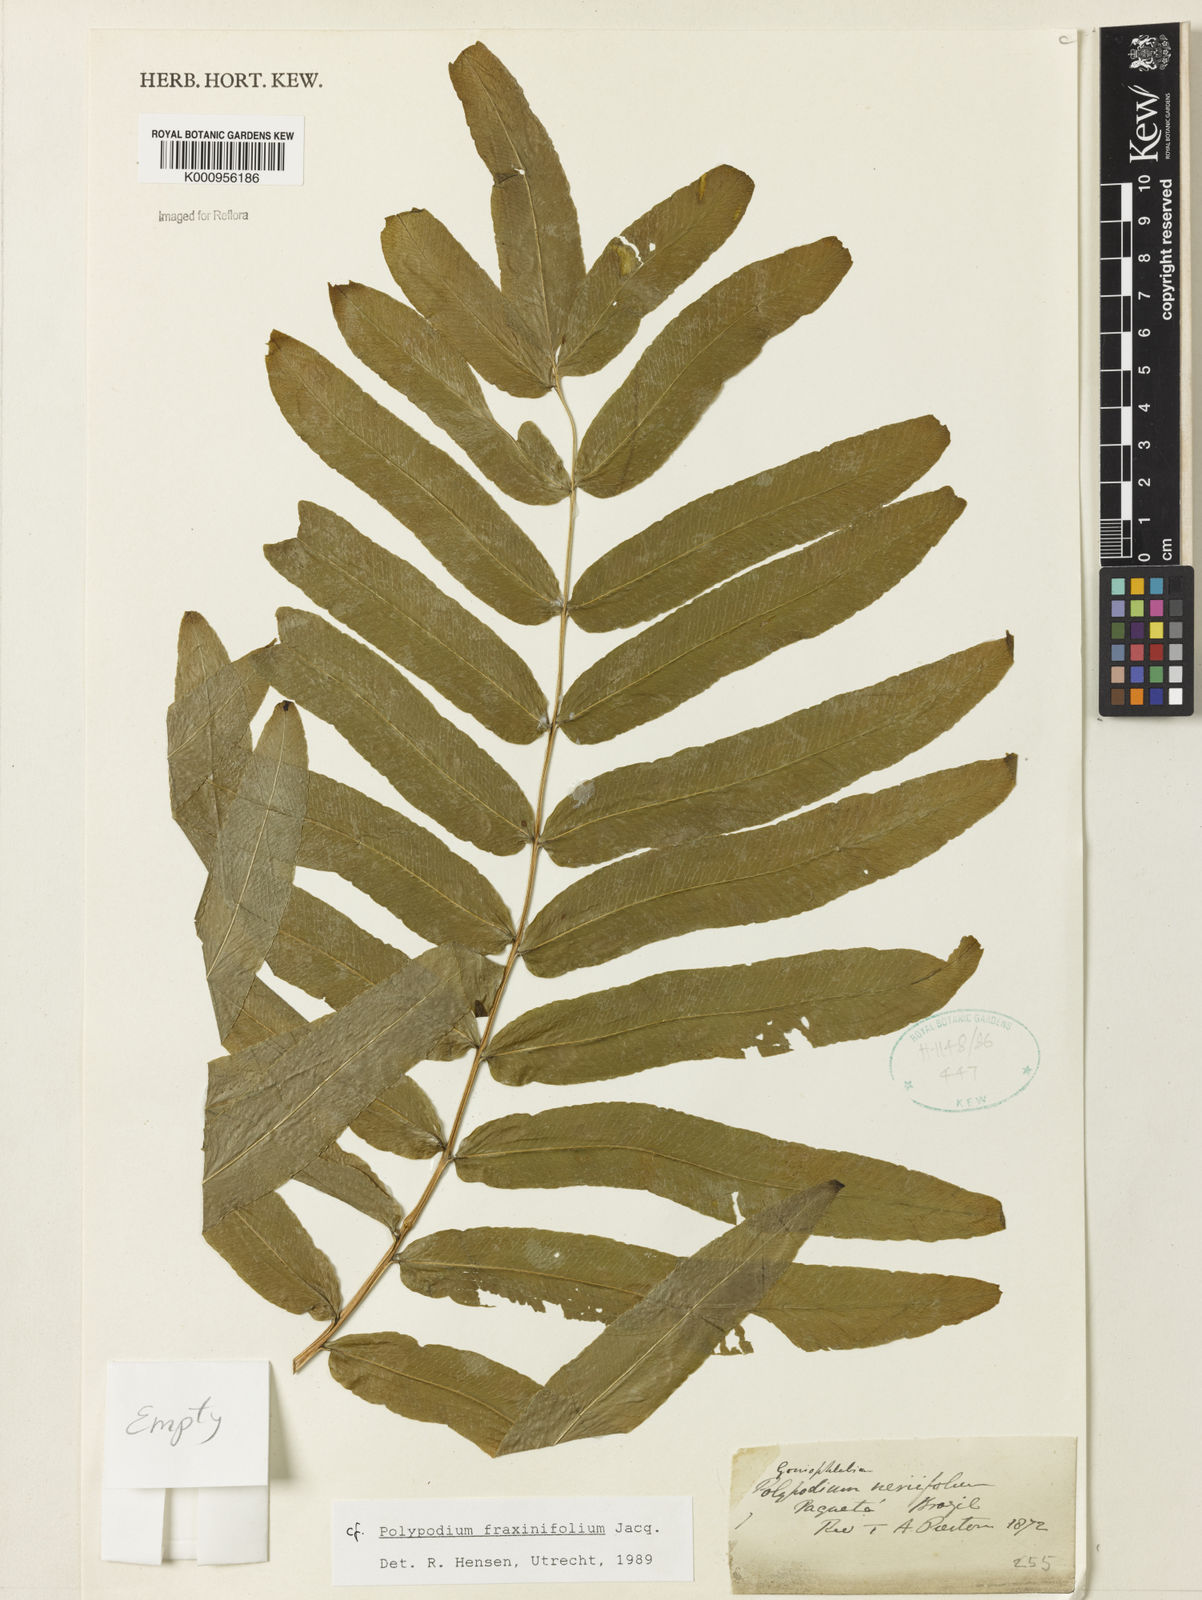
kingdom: Plantae
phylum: Tracheophyta
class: Polypodiopsida
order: Polypodiales
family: Polypodiaceae
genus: Serpocaulon
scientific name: Serpocaulon fraxinifolium
